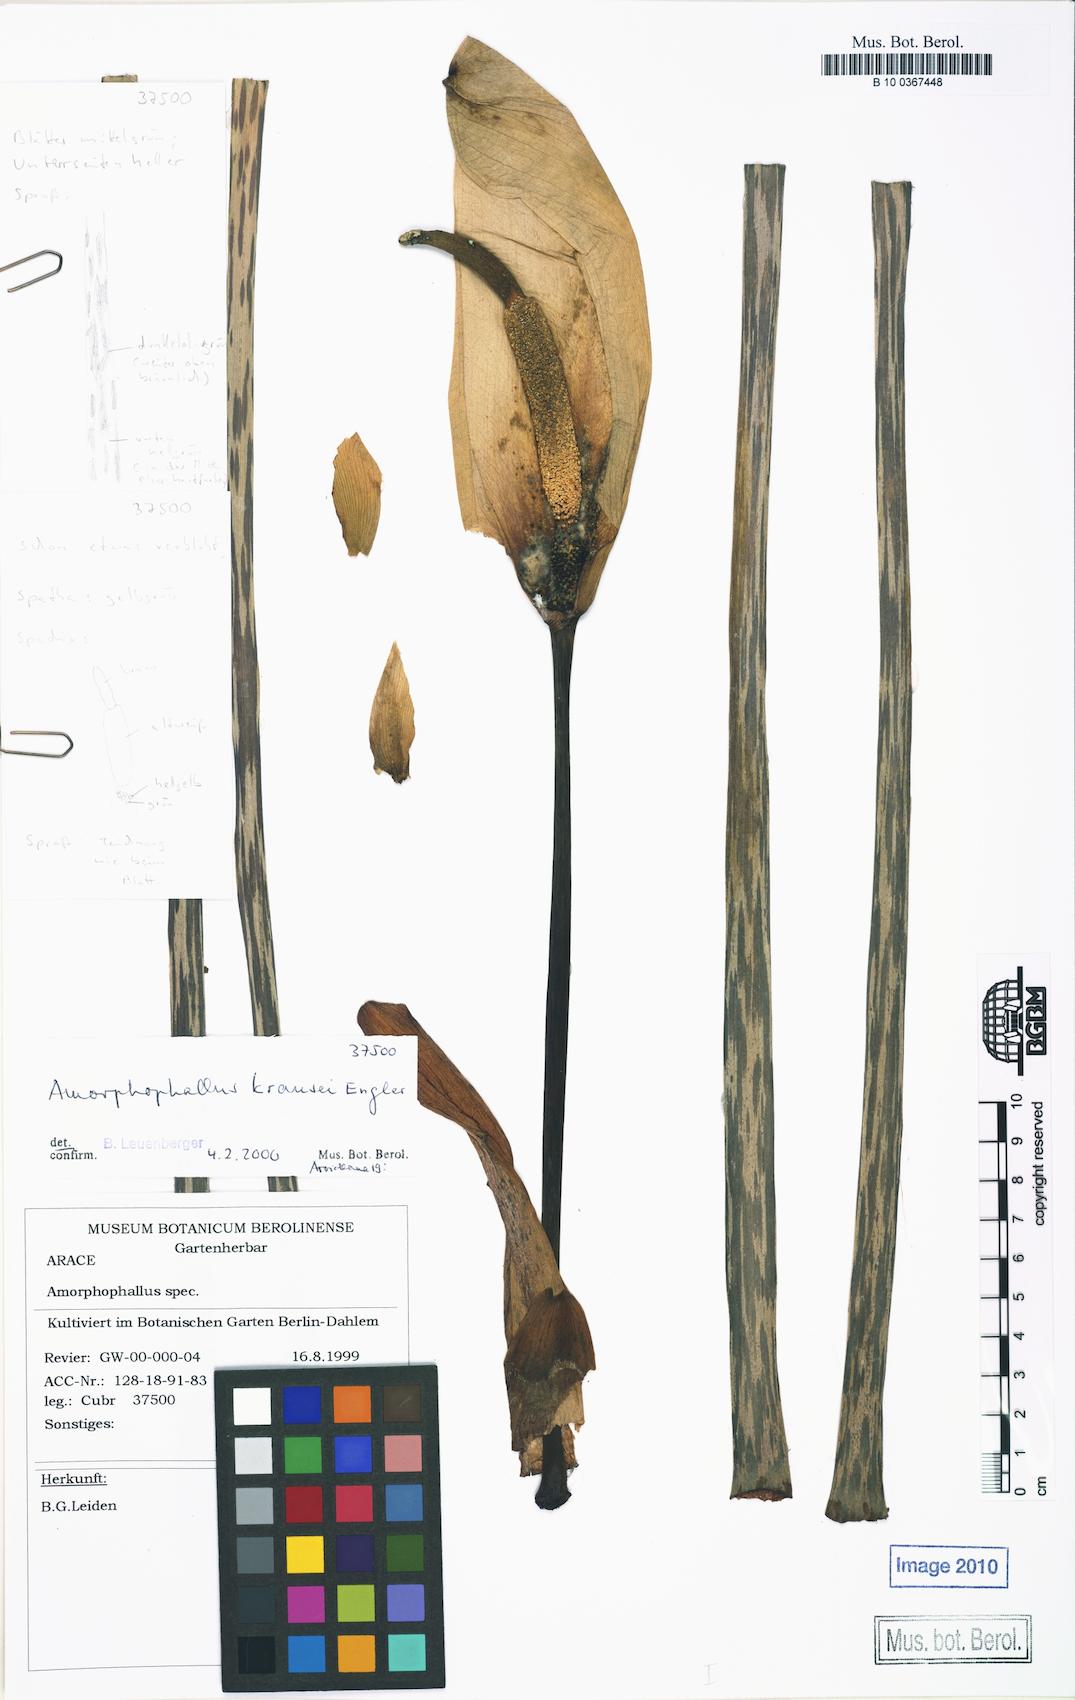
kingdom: Plantae
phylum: Tracheophyta
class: Liliopsida
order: Alismatales
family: Araceae
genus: Amorphophallus
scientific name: Amorphophallus krausei
